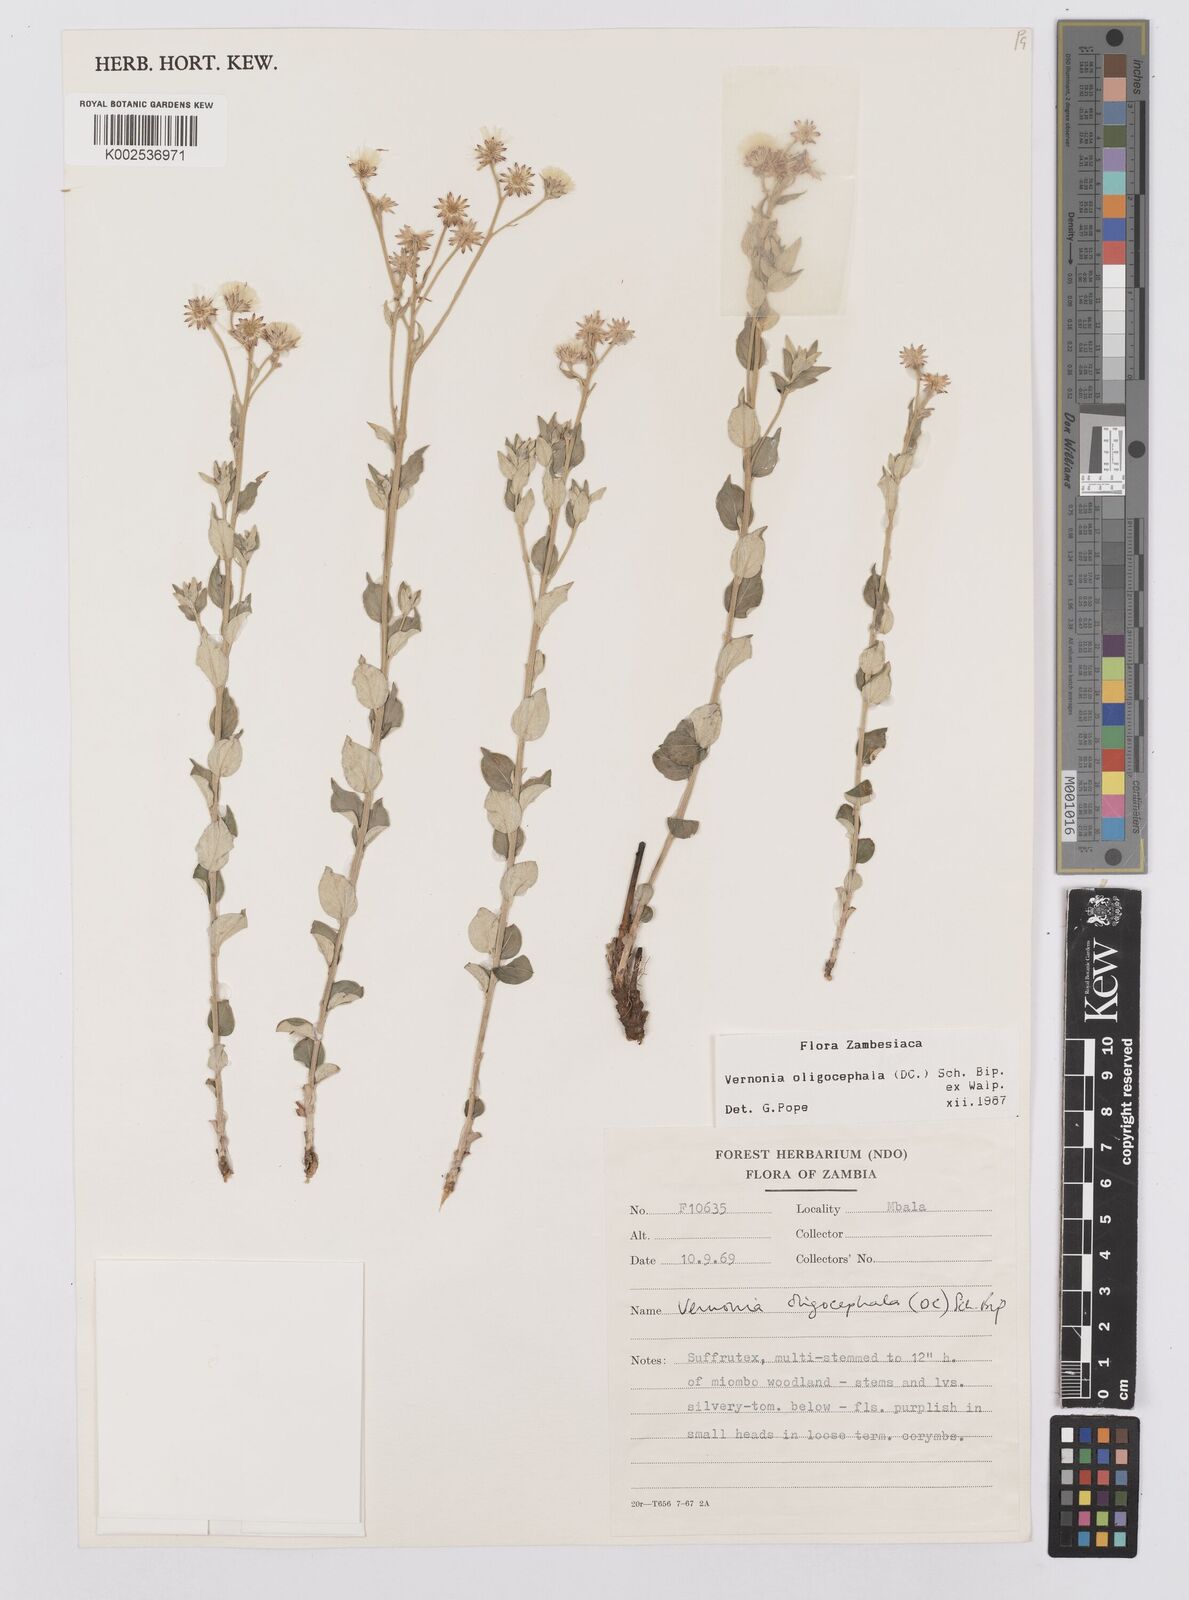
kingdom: Plantae
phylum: Tracheophyta
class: Magnoliopsida
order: Asterales
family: Asteraceae
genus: Hilliardiella
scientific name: Hilliardiella oligocephala
